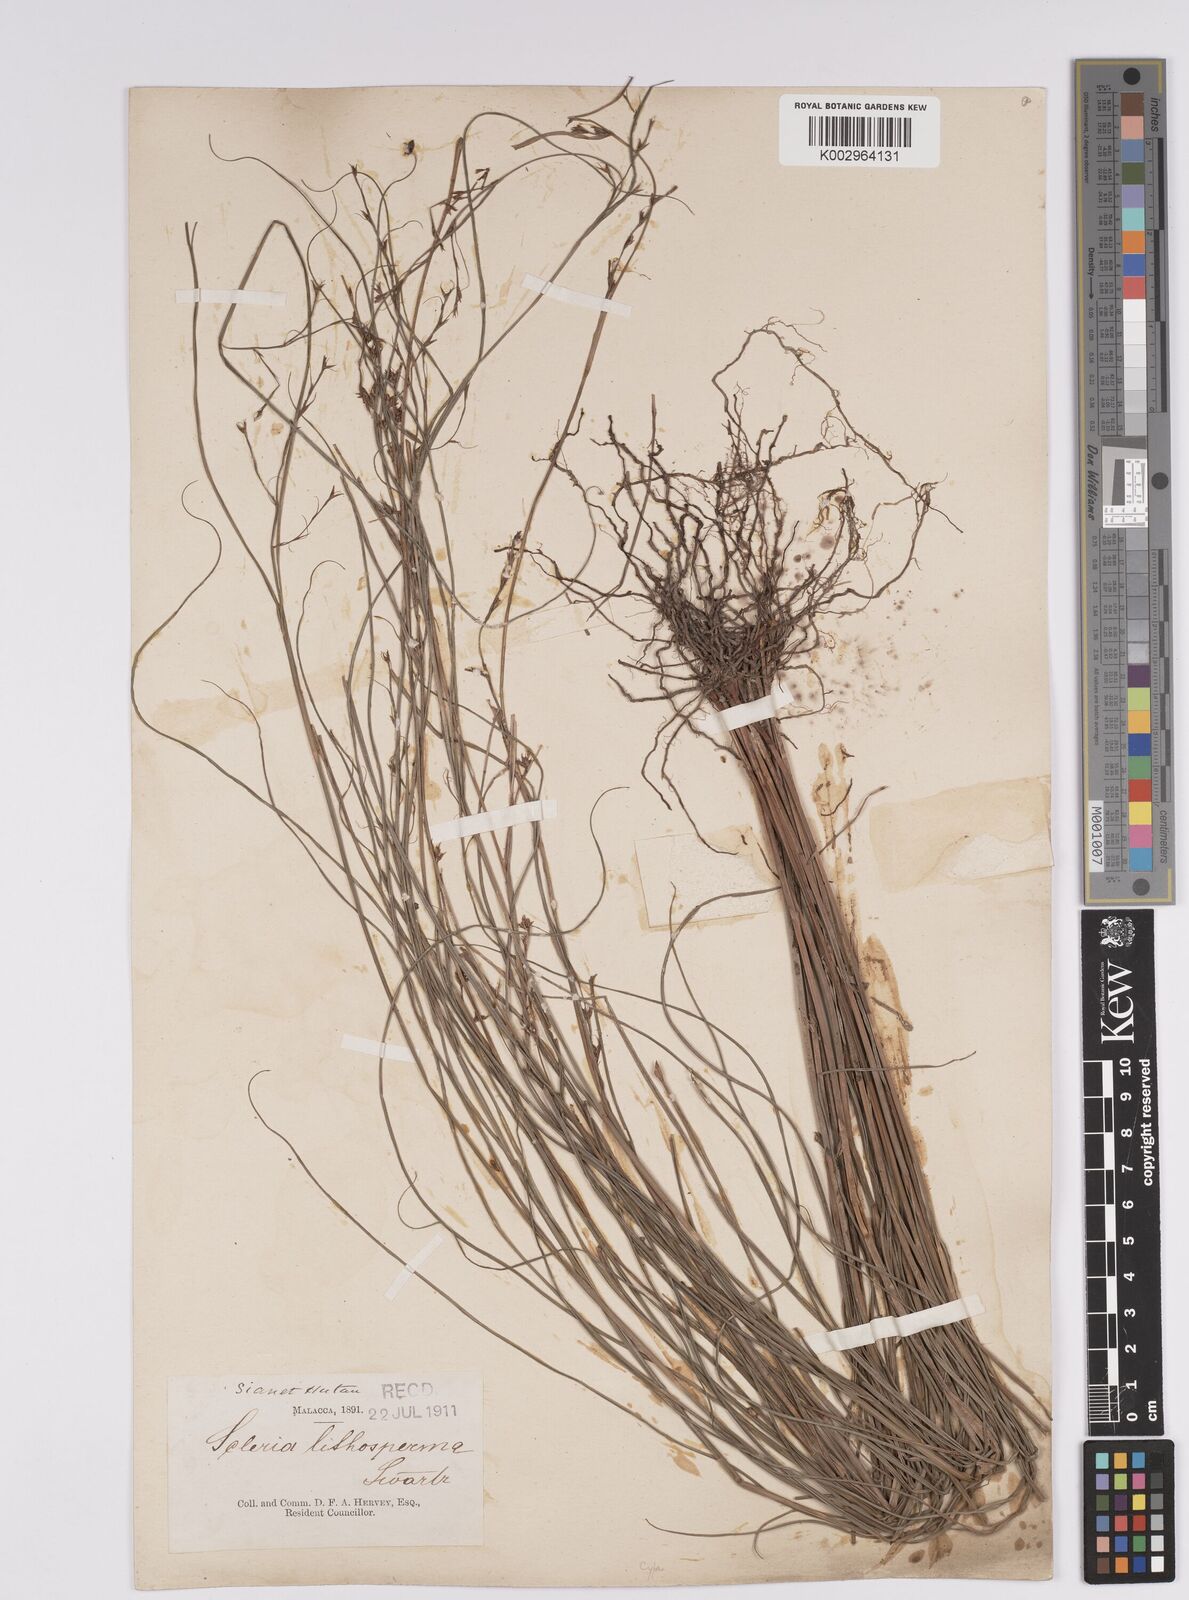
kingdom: Plantae
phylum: Tracheophyta
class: Liliopsida
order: Poales
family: Cyperaceae
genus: Scleria
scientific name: Scleria lithosperma
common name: Florida keys nut-rush
